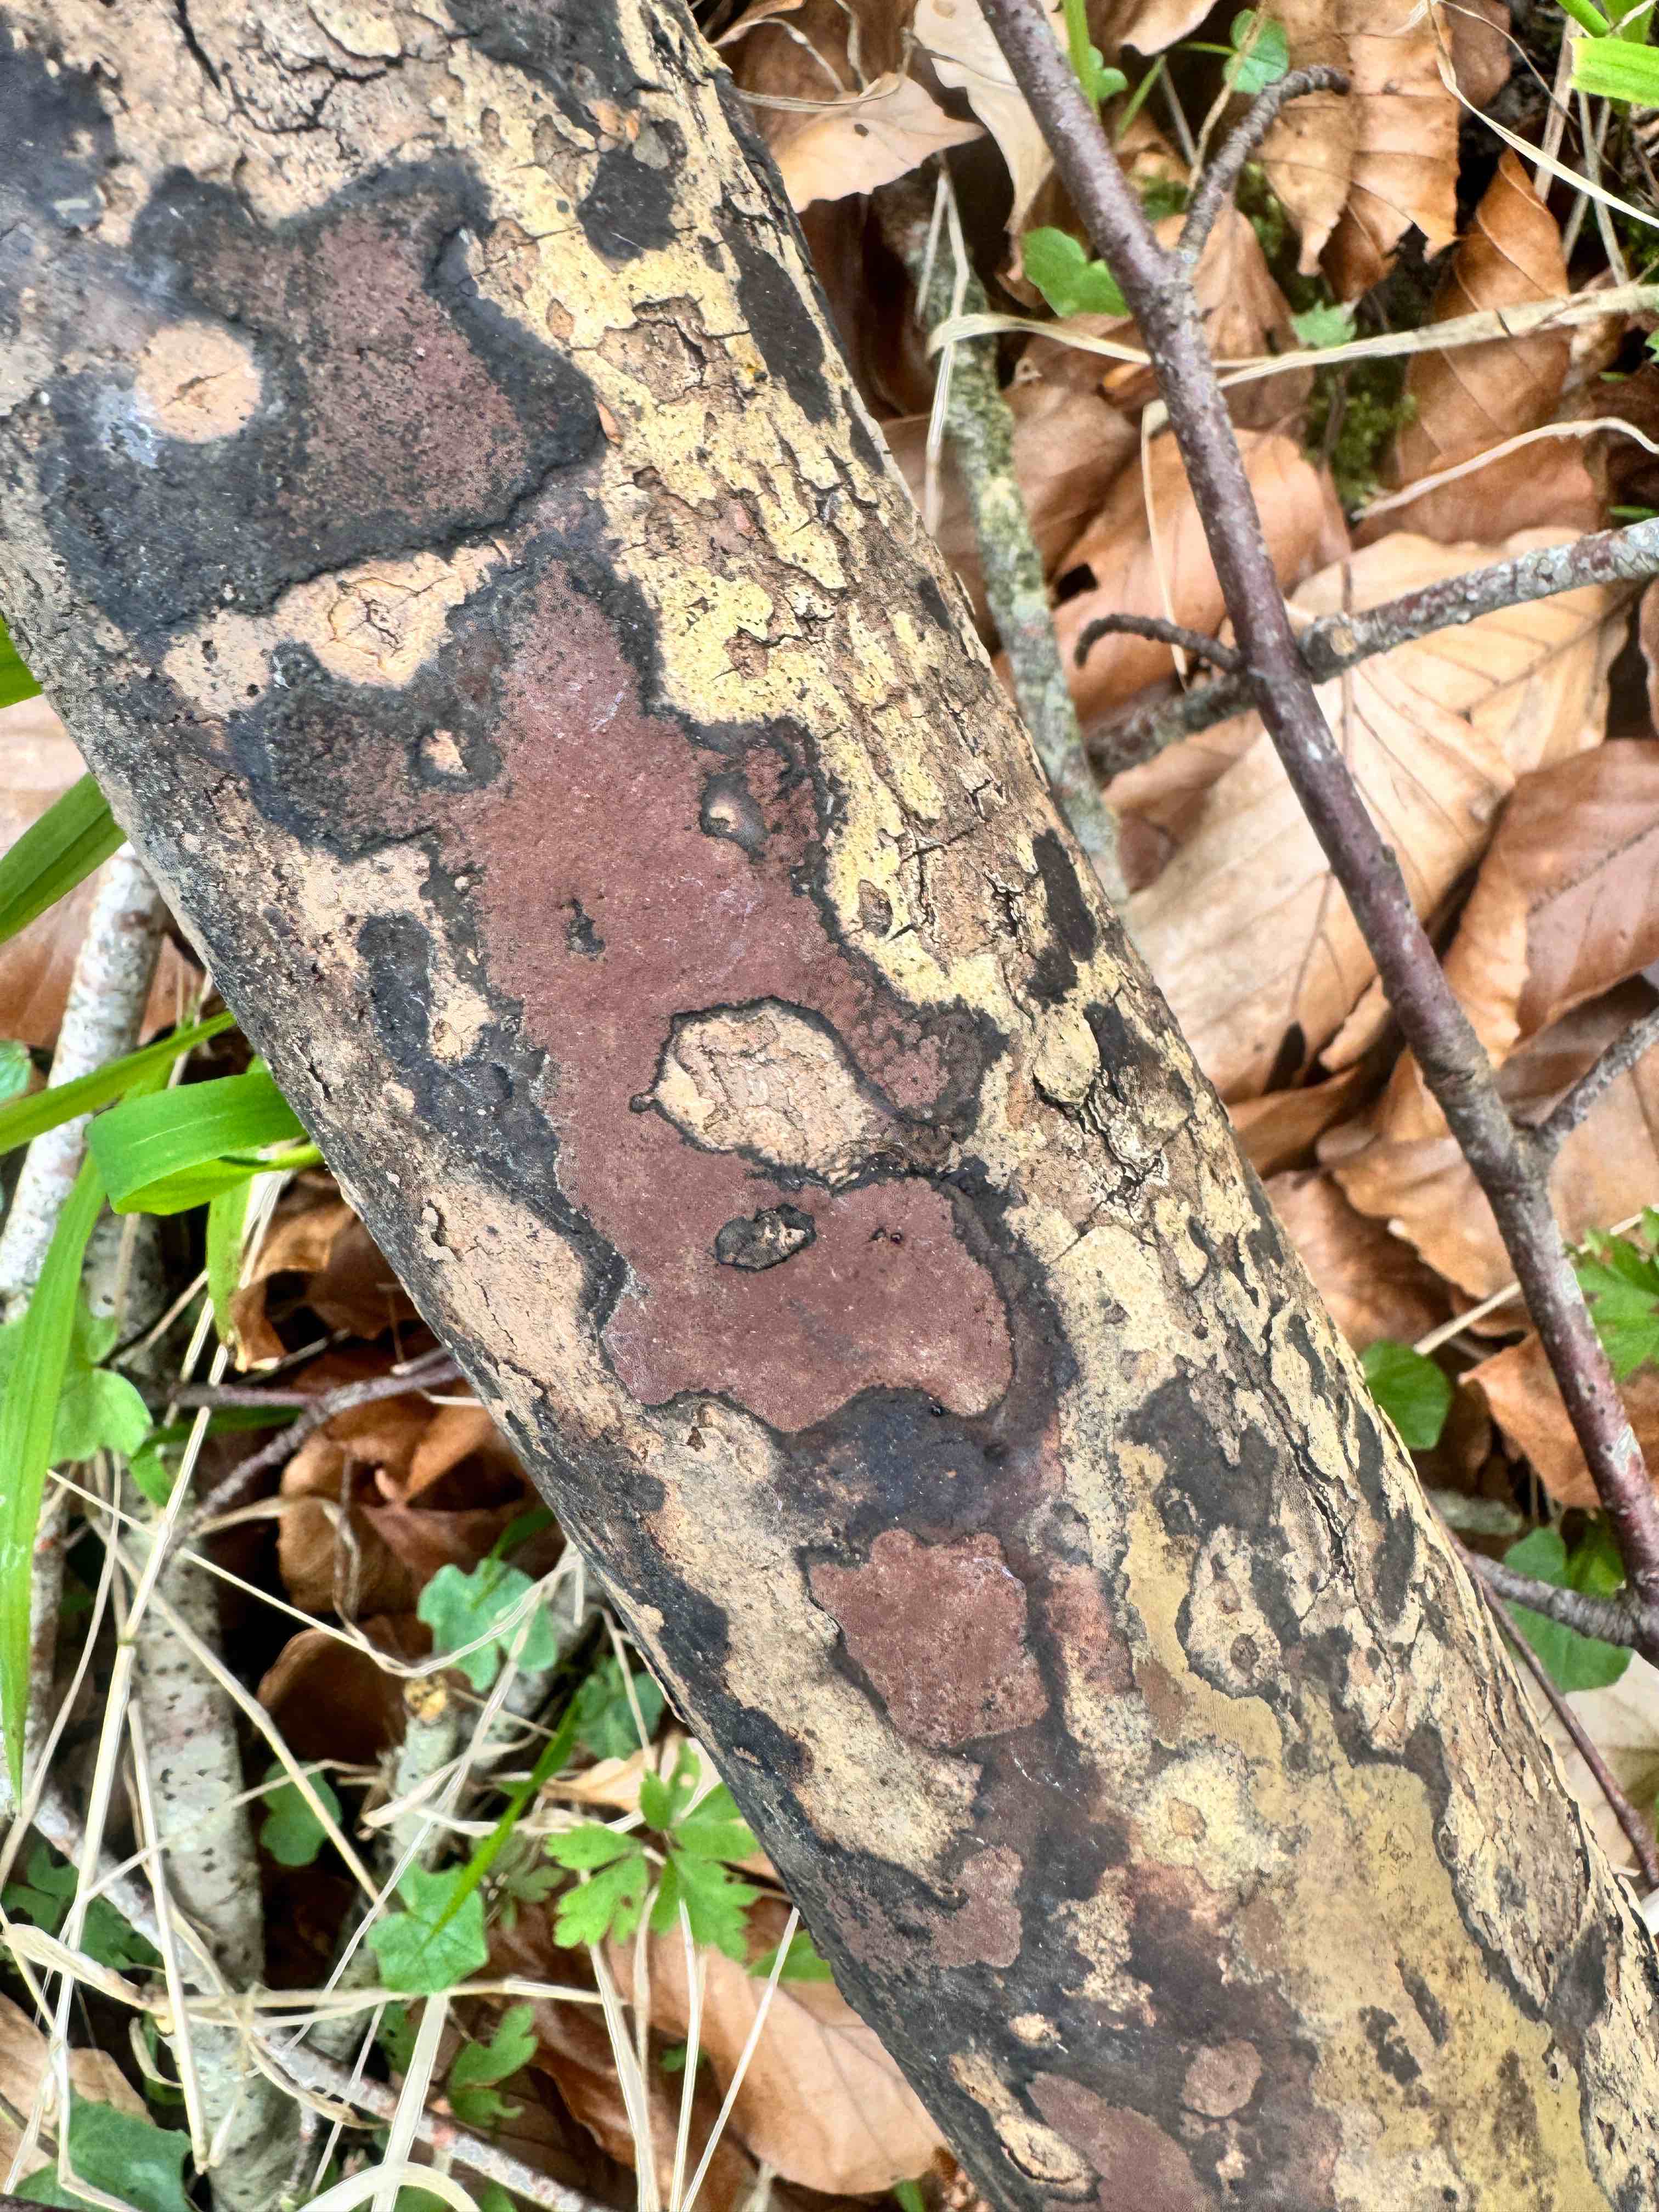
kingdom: Fungi
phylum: Ascomycota
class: Sordariomycetes
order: Xylariales
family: Hypoxylaceae
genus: Hypoxylon
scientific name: Hypoxylon petriniae
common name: nedsænket kulbær
